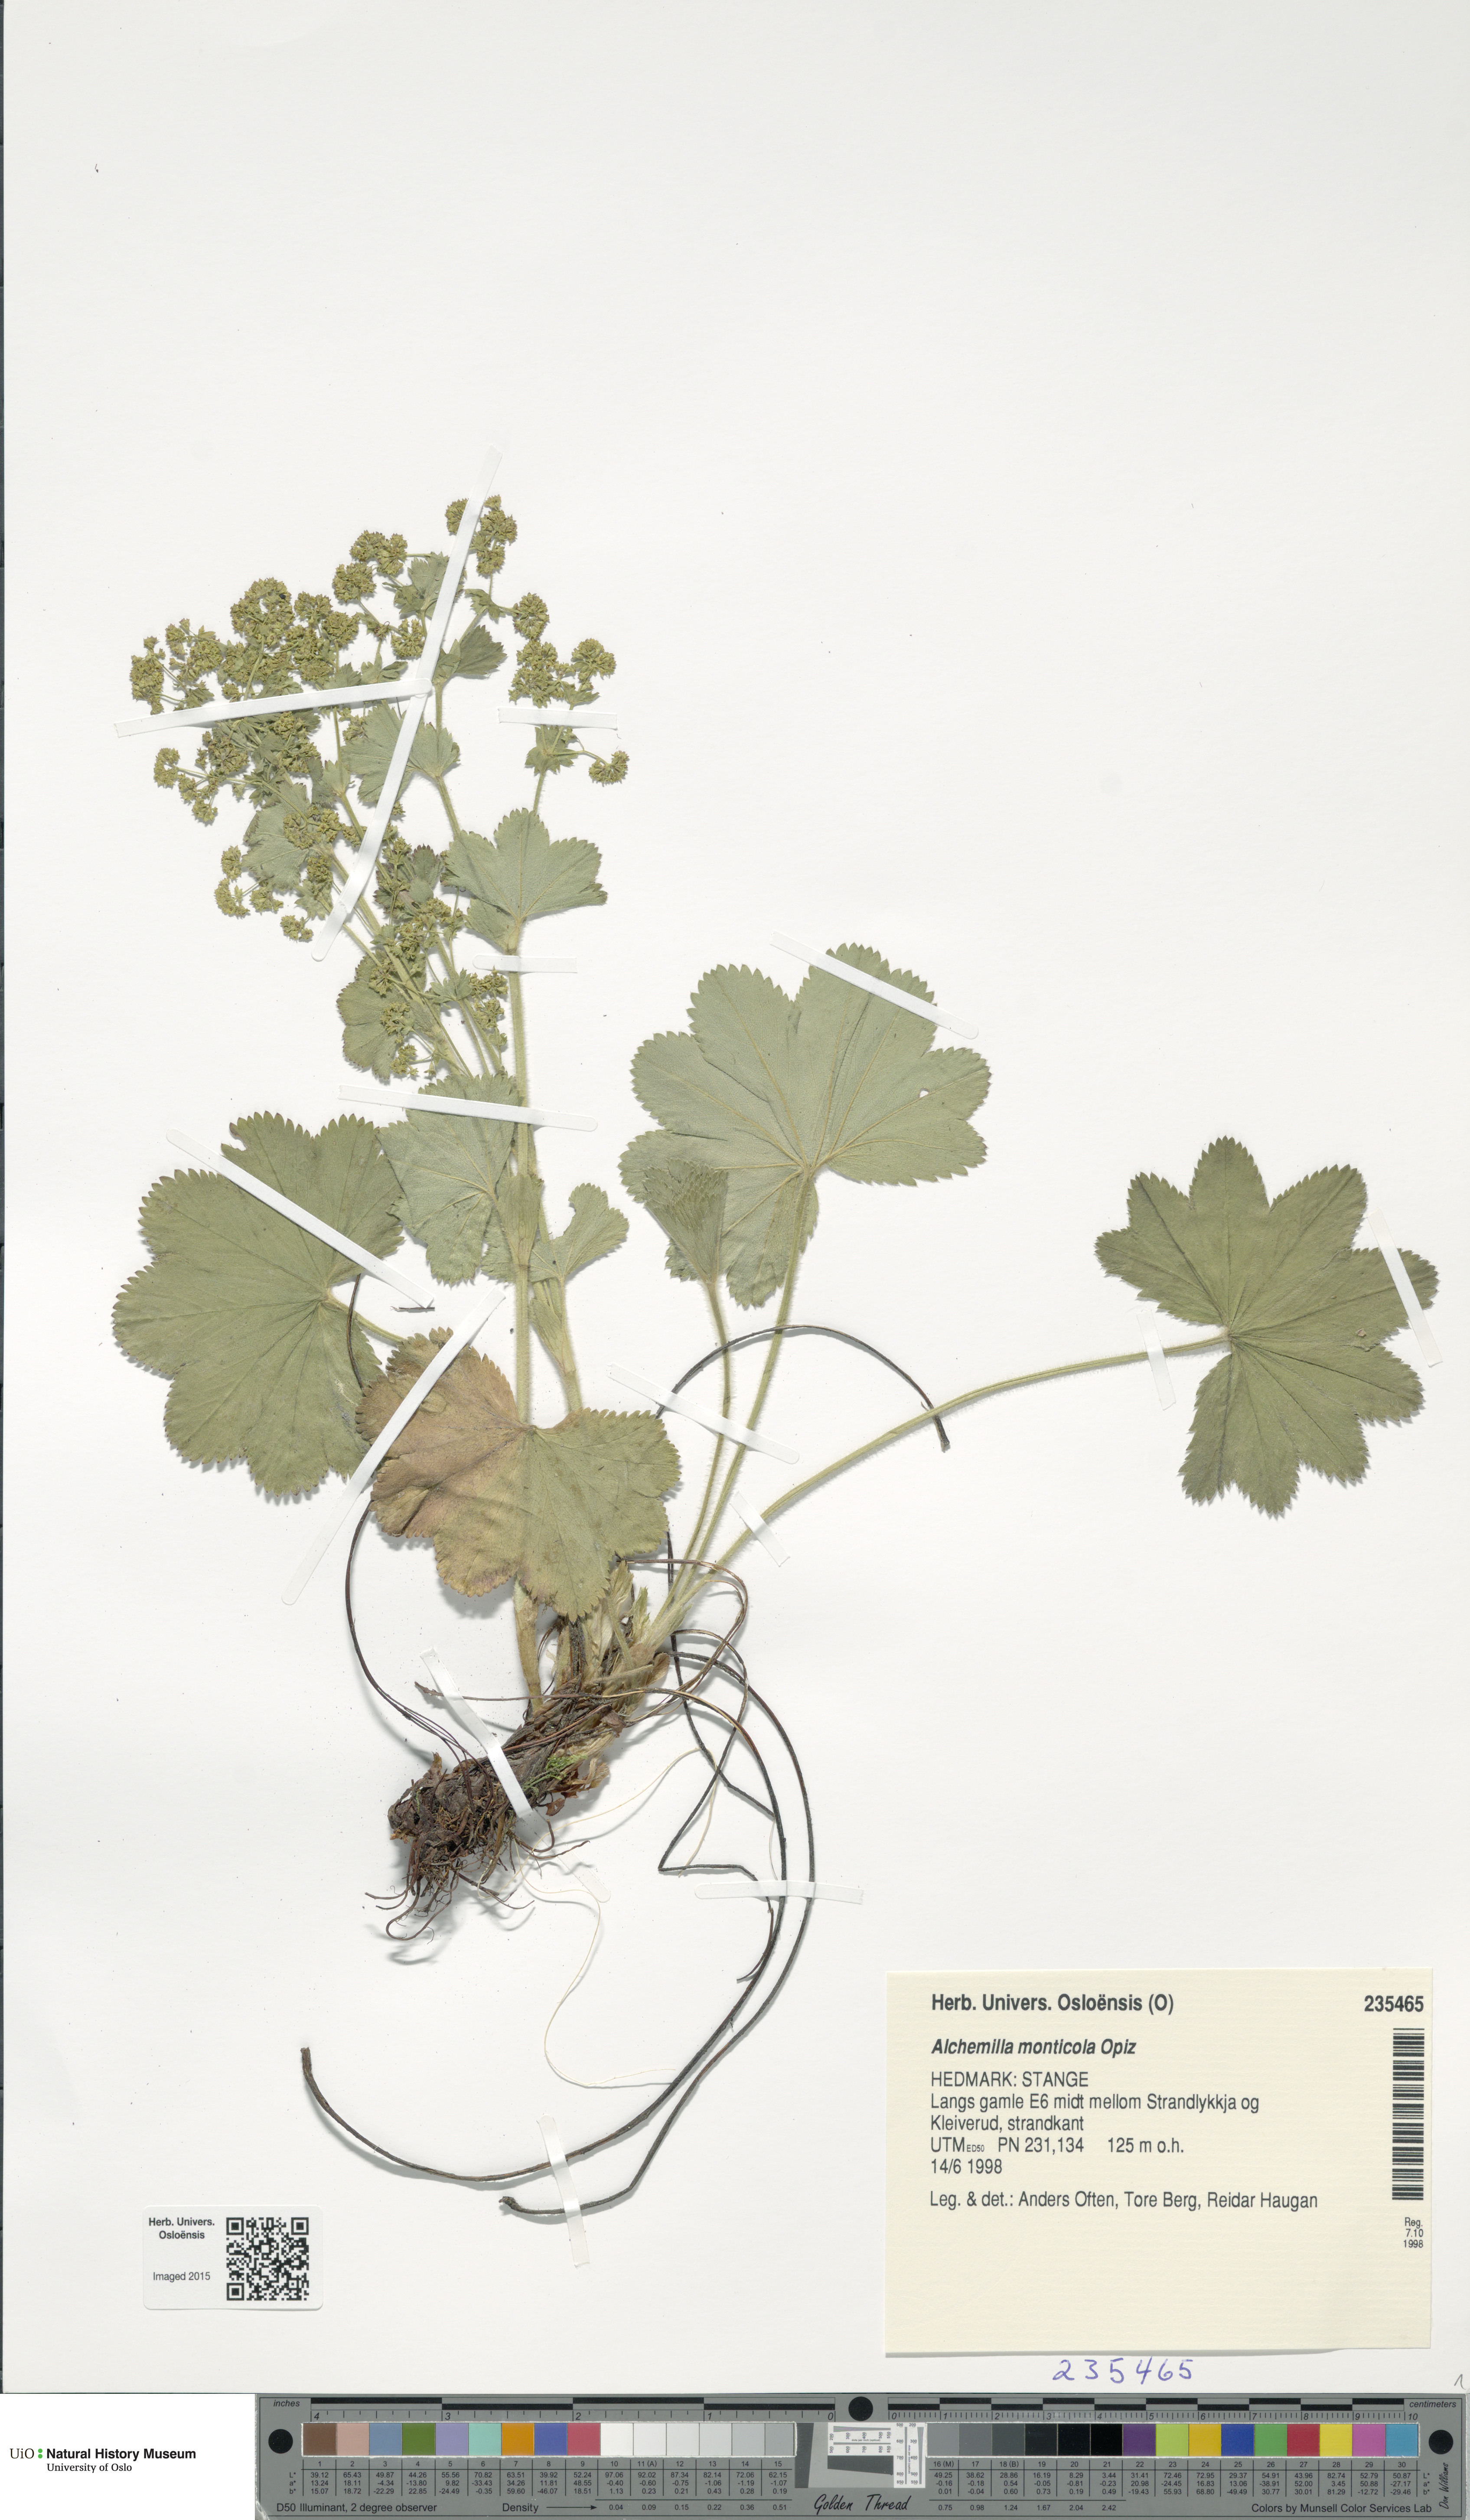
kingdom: Plantae
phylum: Tracheophyta
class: Magnoliopsida
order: Rosales
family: Rosaceae
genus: Alchemilla
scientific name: Alchemilla monticola
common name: Hairy lady's mantle
